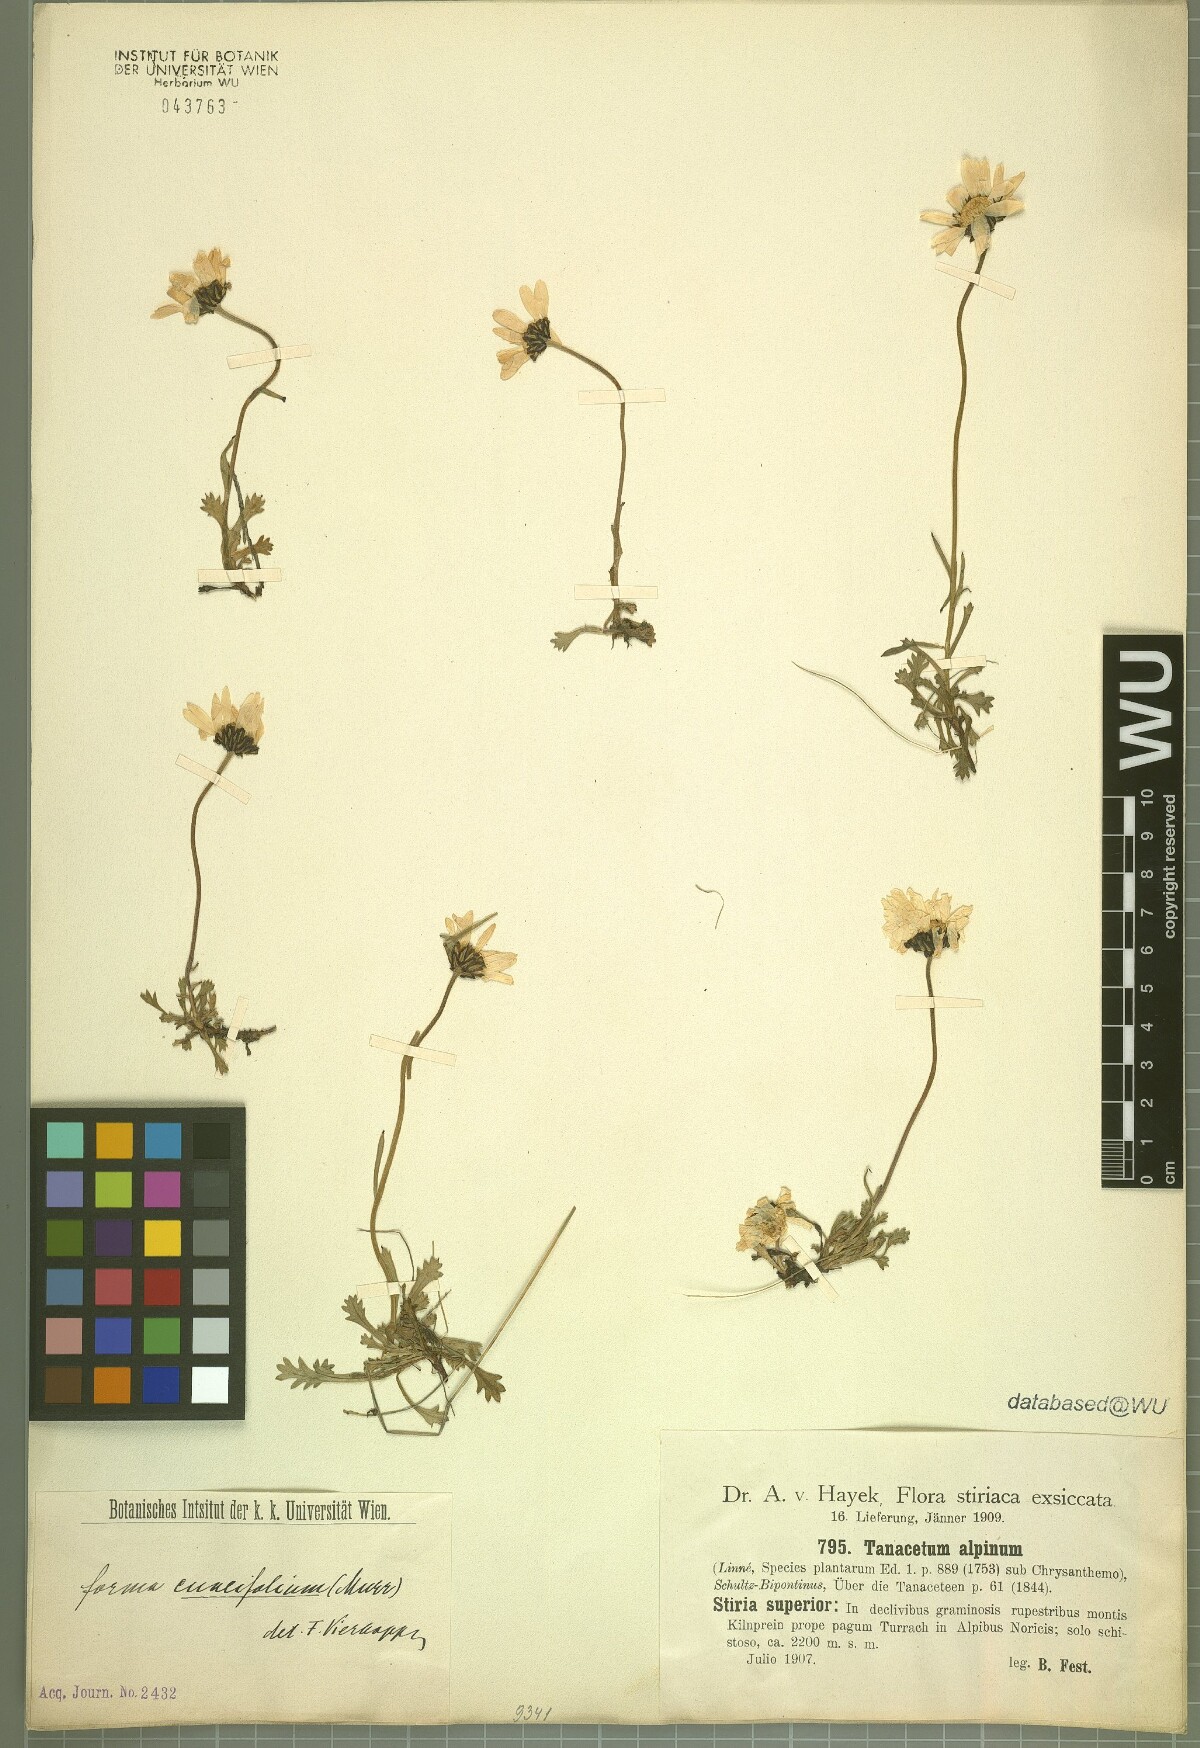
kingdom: Plantae
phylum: Tracheophyta
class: Magnoliopsida
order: Asterales
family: Asteraceae
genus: Leucanthemopsis
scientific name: Leucanthemopsis alpina
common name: Alpine moon daisy
